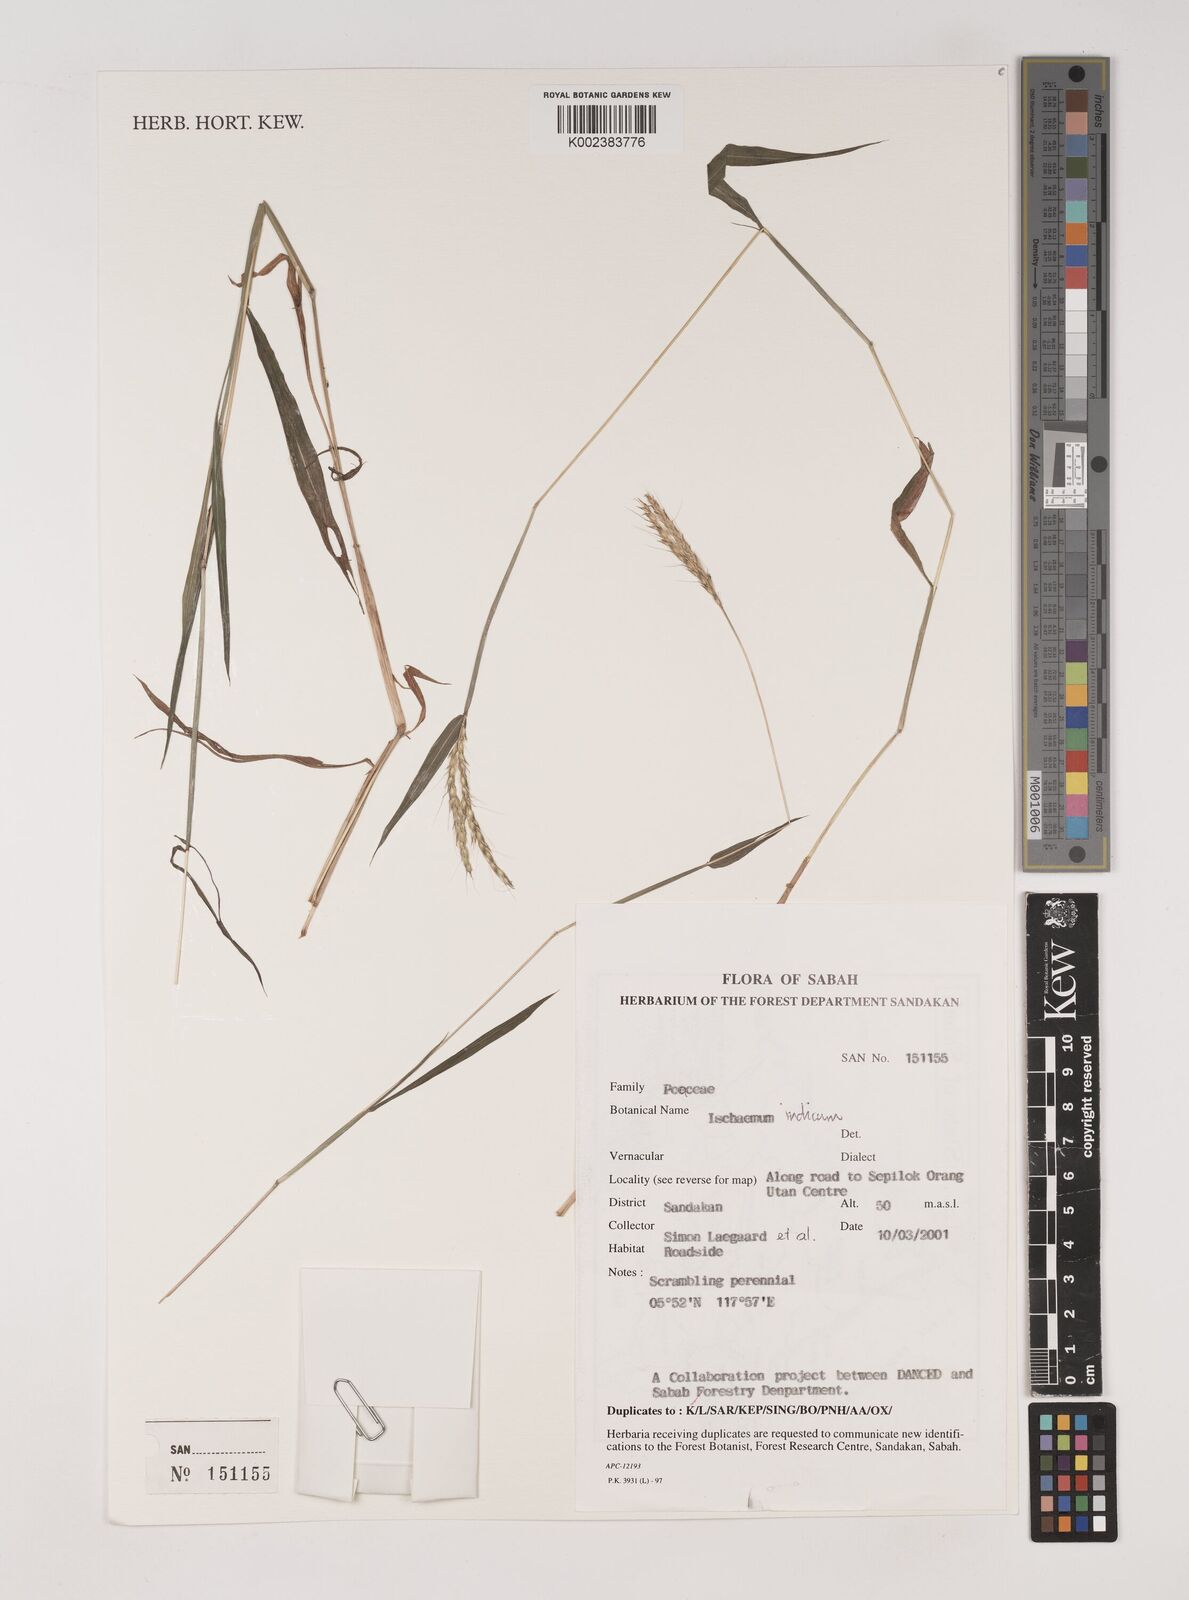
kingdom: Plantae
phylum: Tracheophyta
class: Liliopsida
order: Poales
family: Poaceae
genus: Polytrias
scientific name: Polytrias indica
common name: Indian murainagrass
